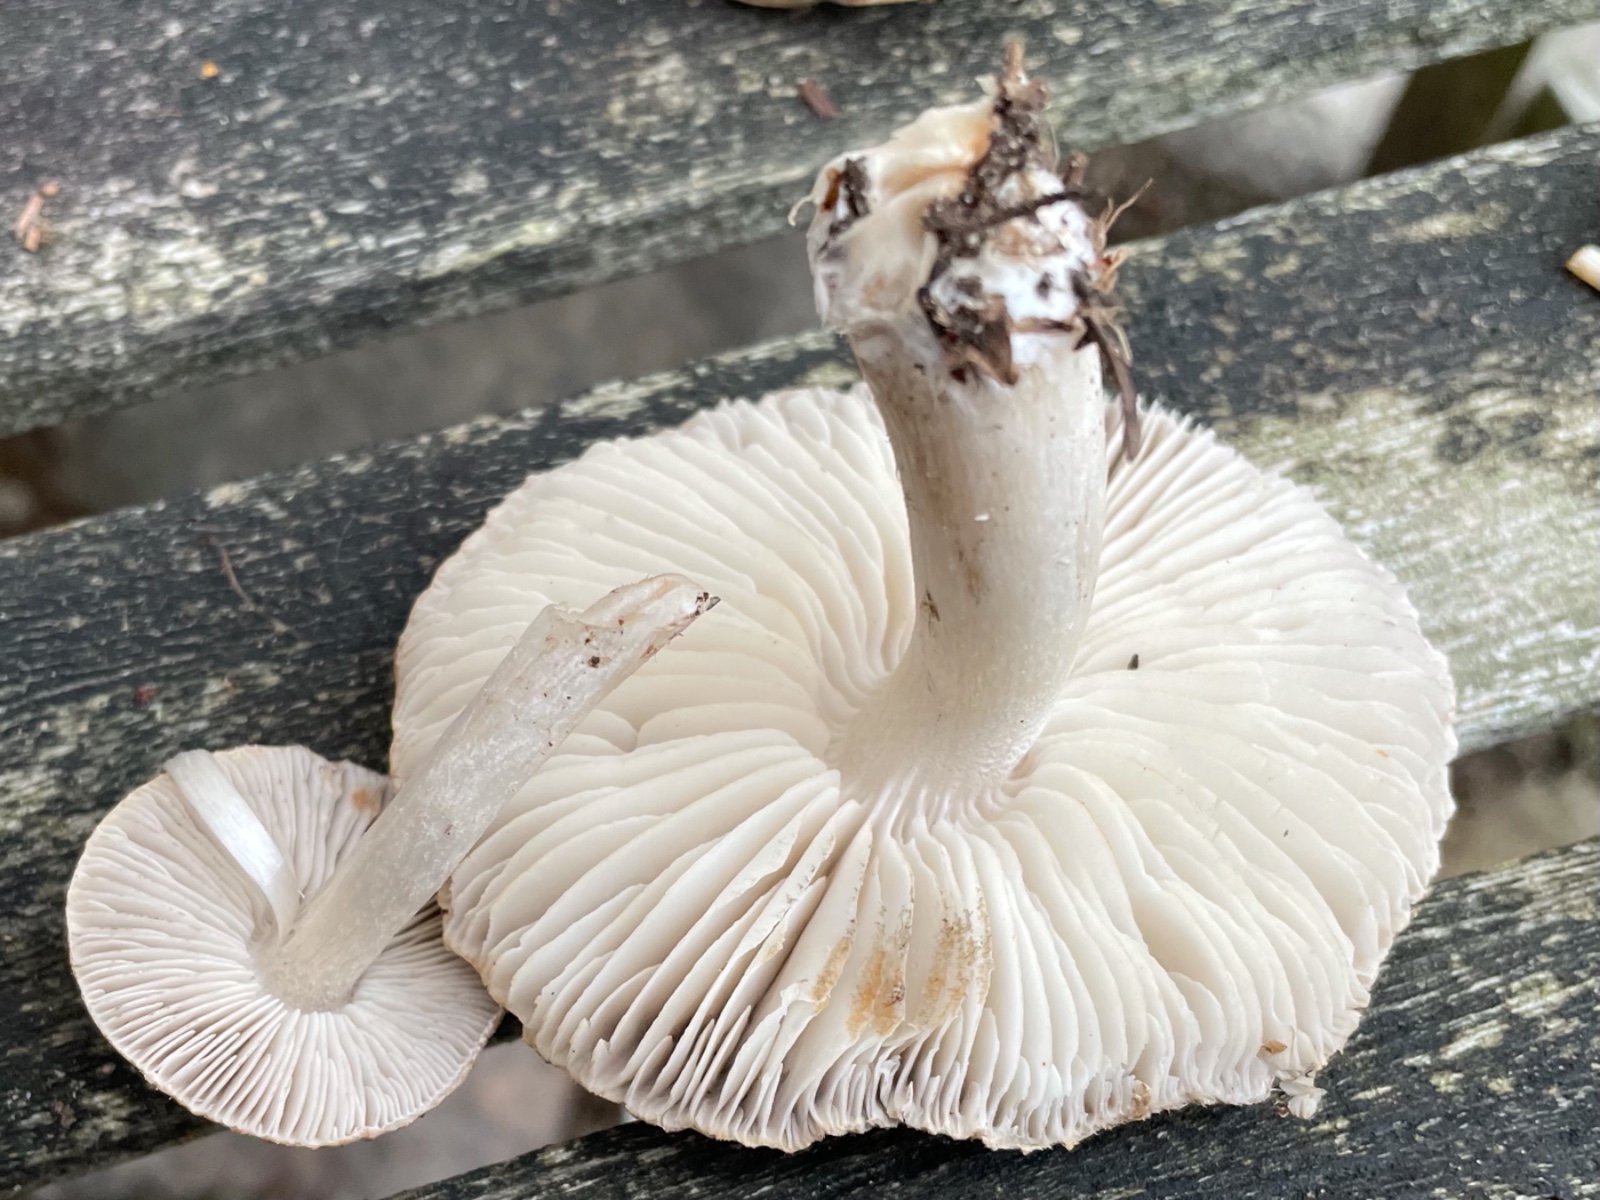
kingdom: Fungi
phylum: Basidiomycota
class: Agaricomycetes
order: Agaricales
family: Tricholomataceae
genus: Tricholoma
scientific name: Tricholoma terreum
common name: jordfarvet ridderhat
